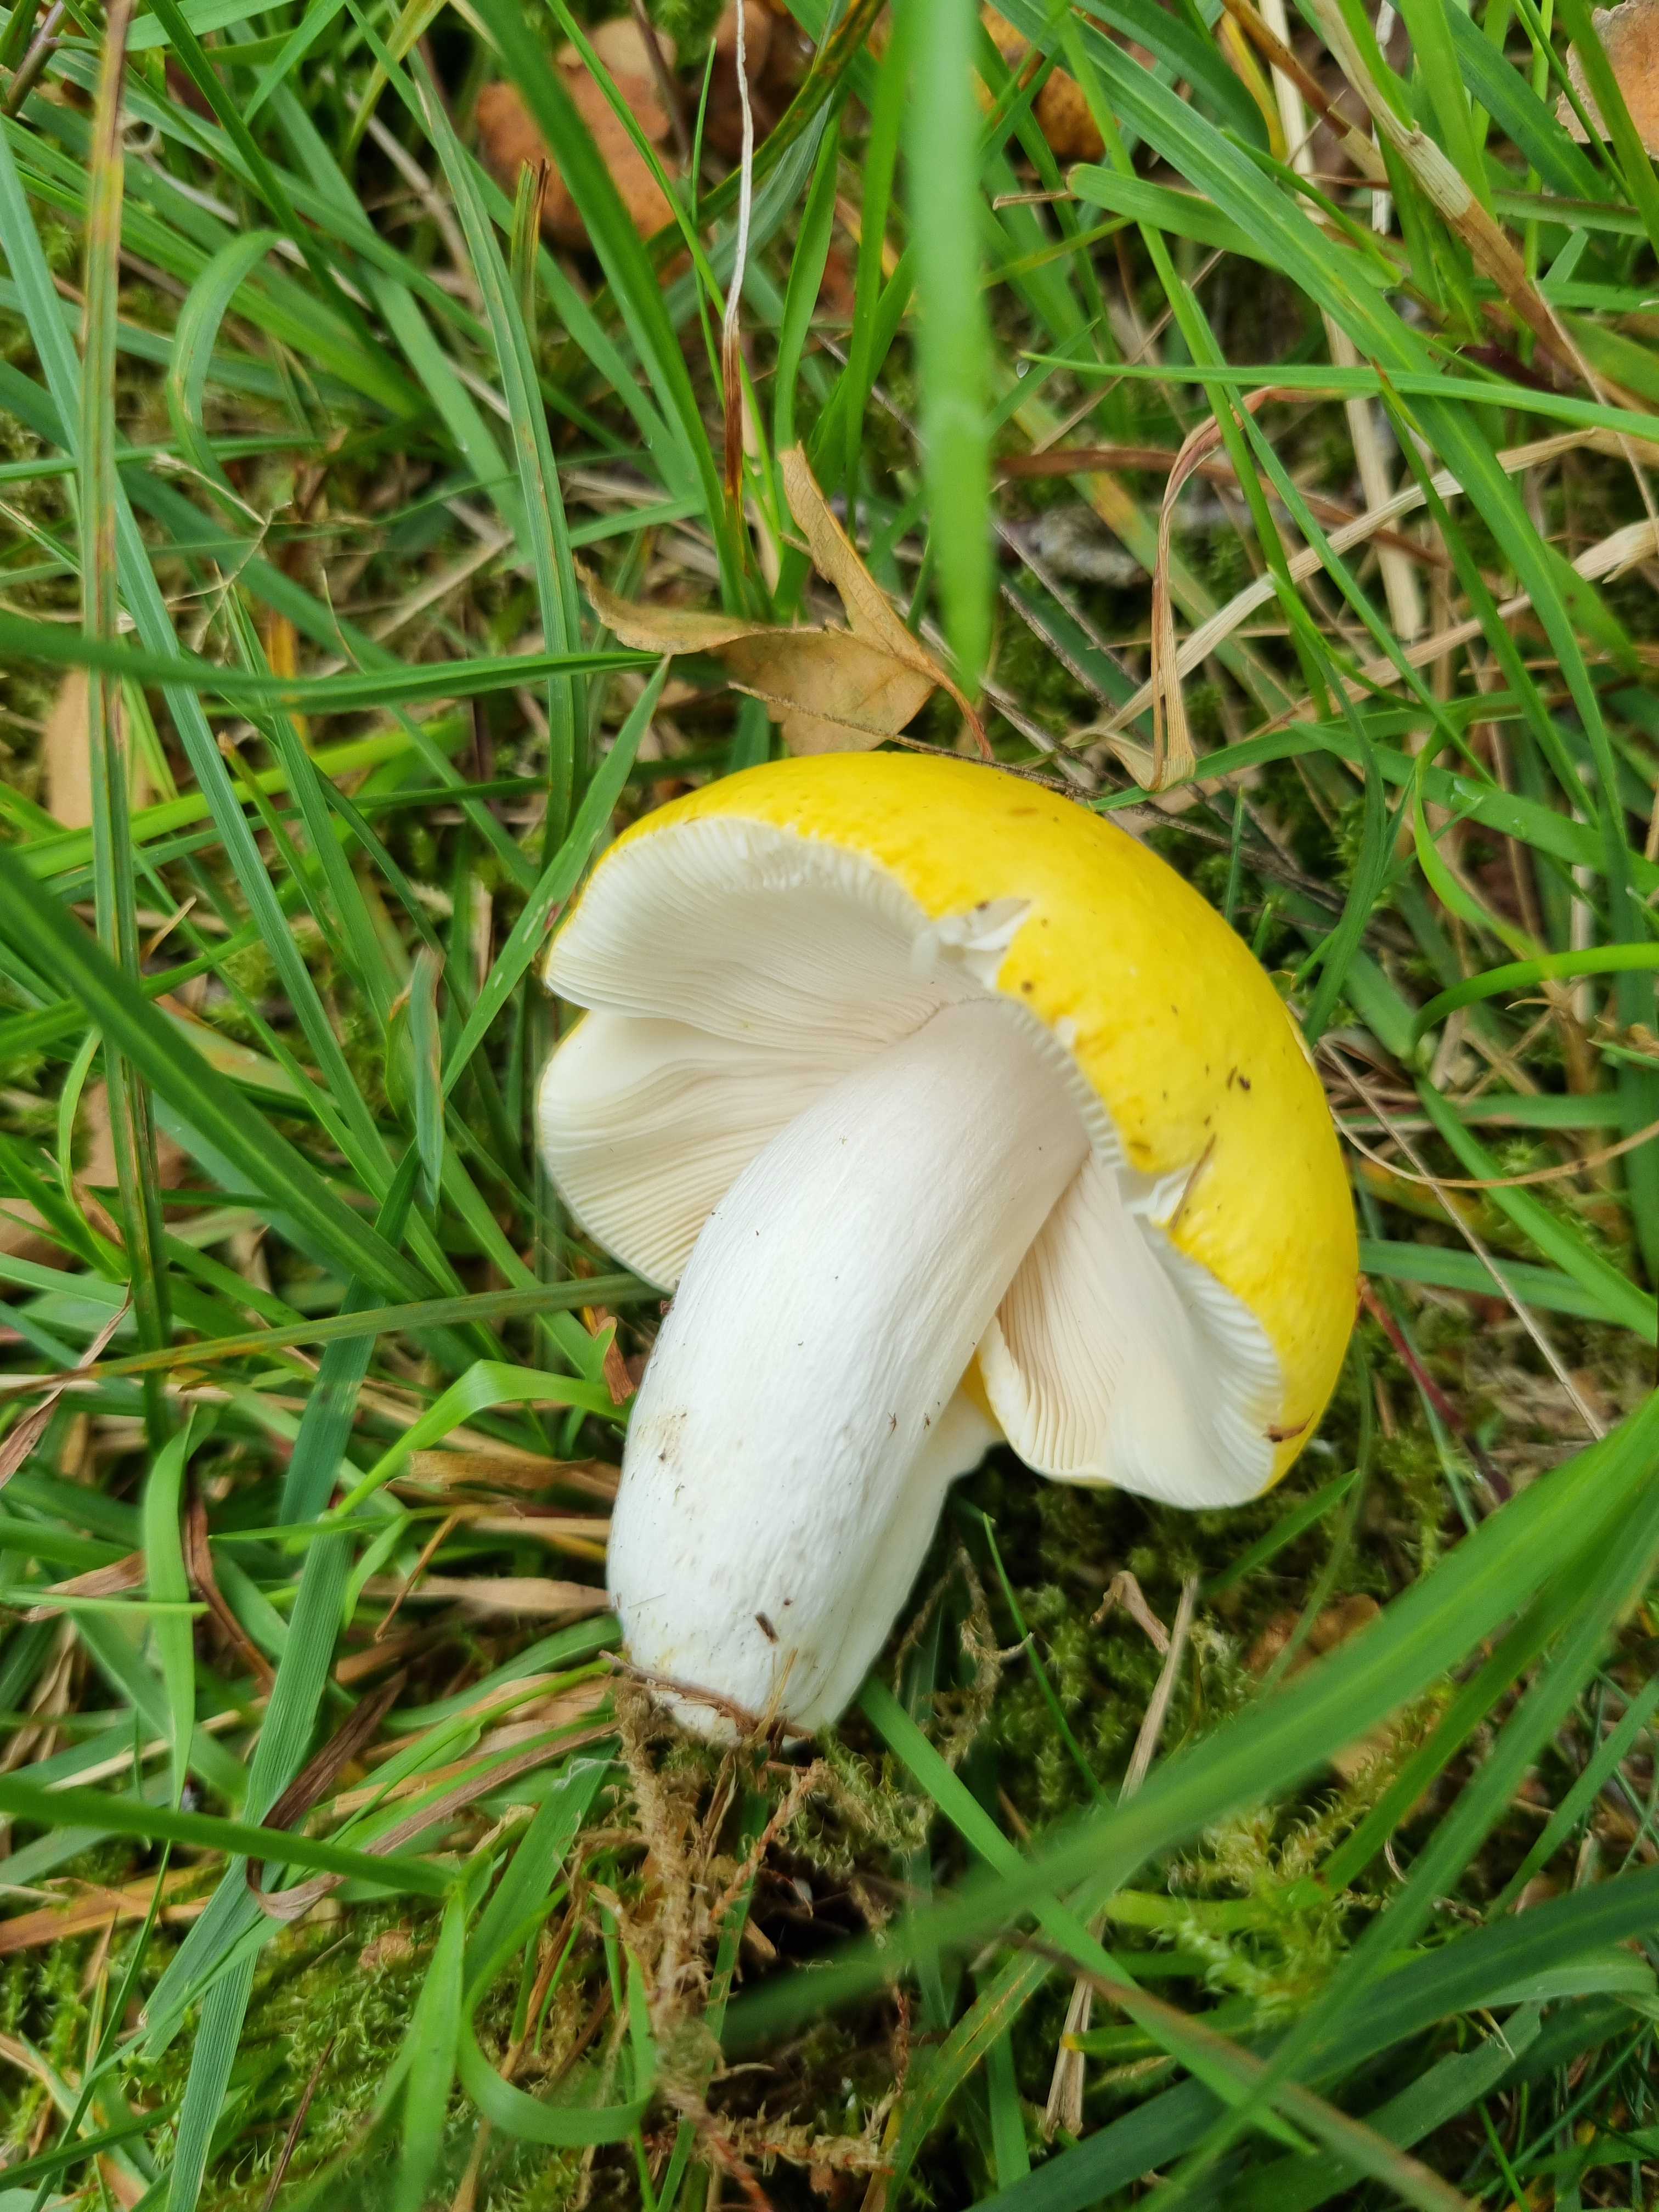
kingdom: Fungi
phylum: Basidiomycota
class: Agaricomycetes
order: Russulales
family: Russulaceae
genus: Russula
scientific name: Russula claroflava
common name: birke-skørhat
